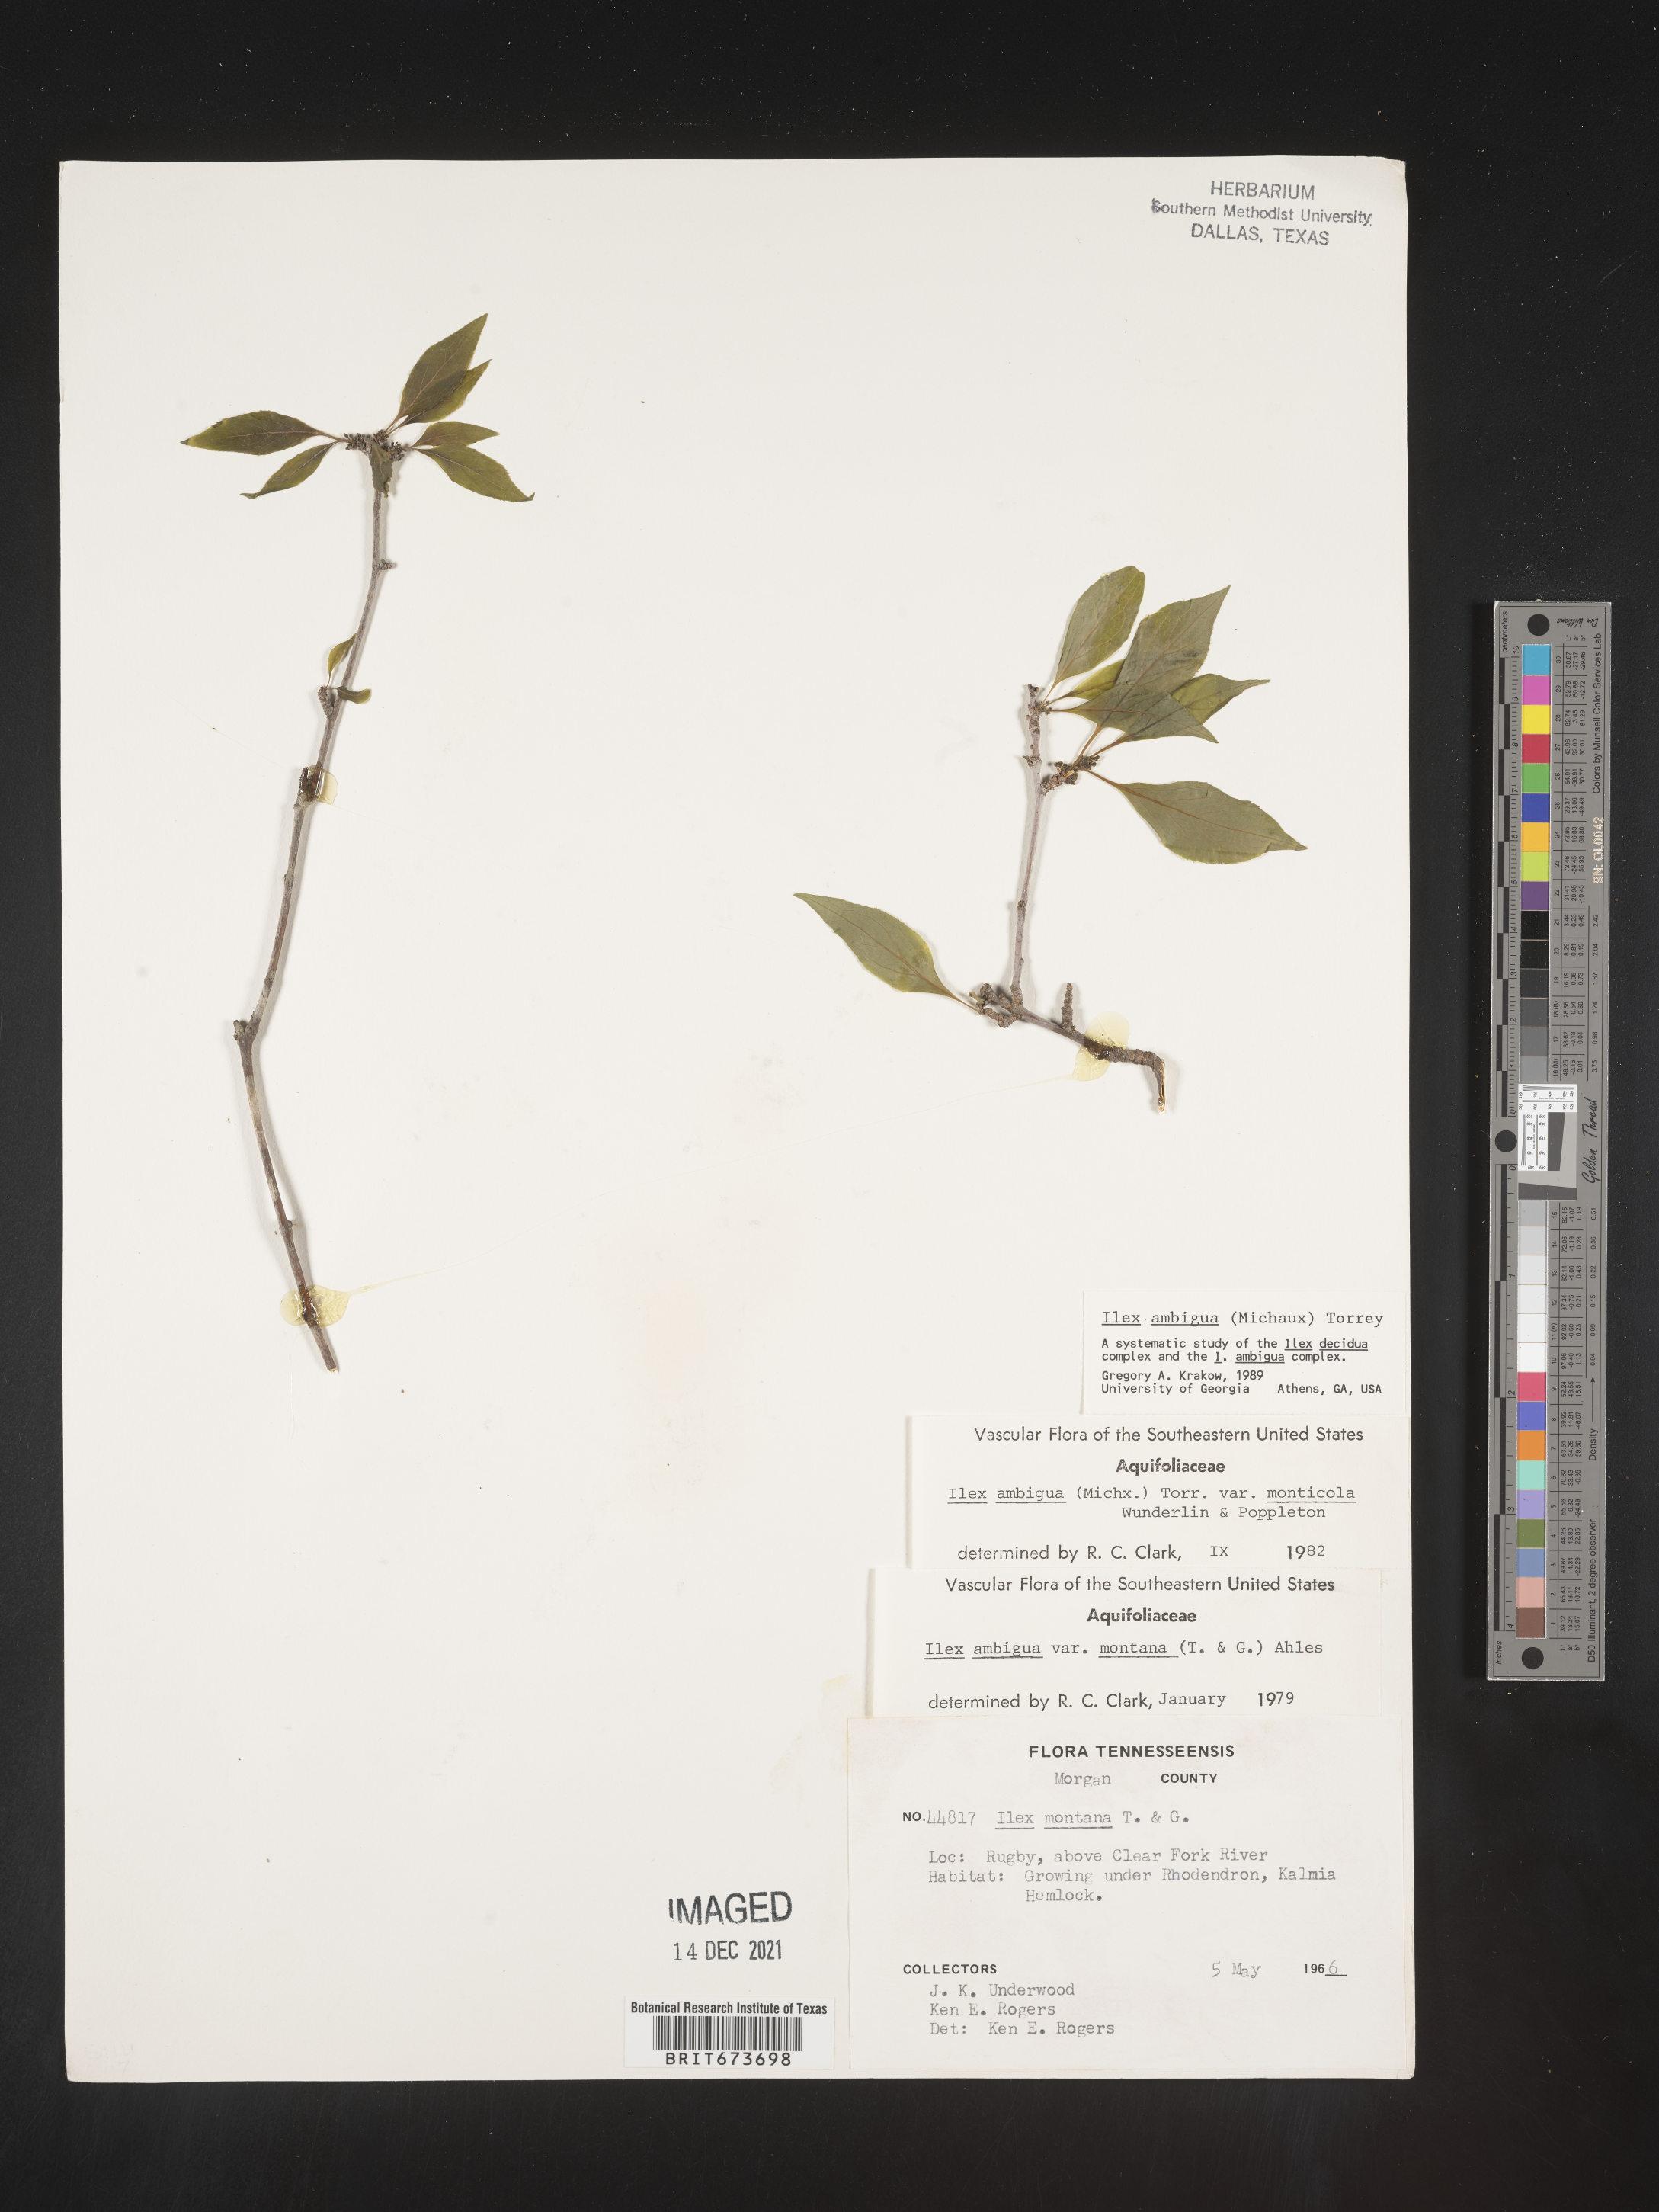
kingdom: Plantae
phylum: Tracheophyta
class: Magnoliopsida
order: Aquifoliales
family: Aquifoliaceae
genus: Ilex
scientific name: Ilex ambigua
